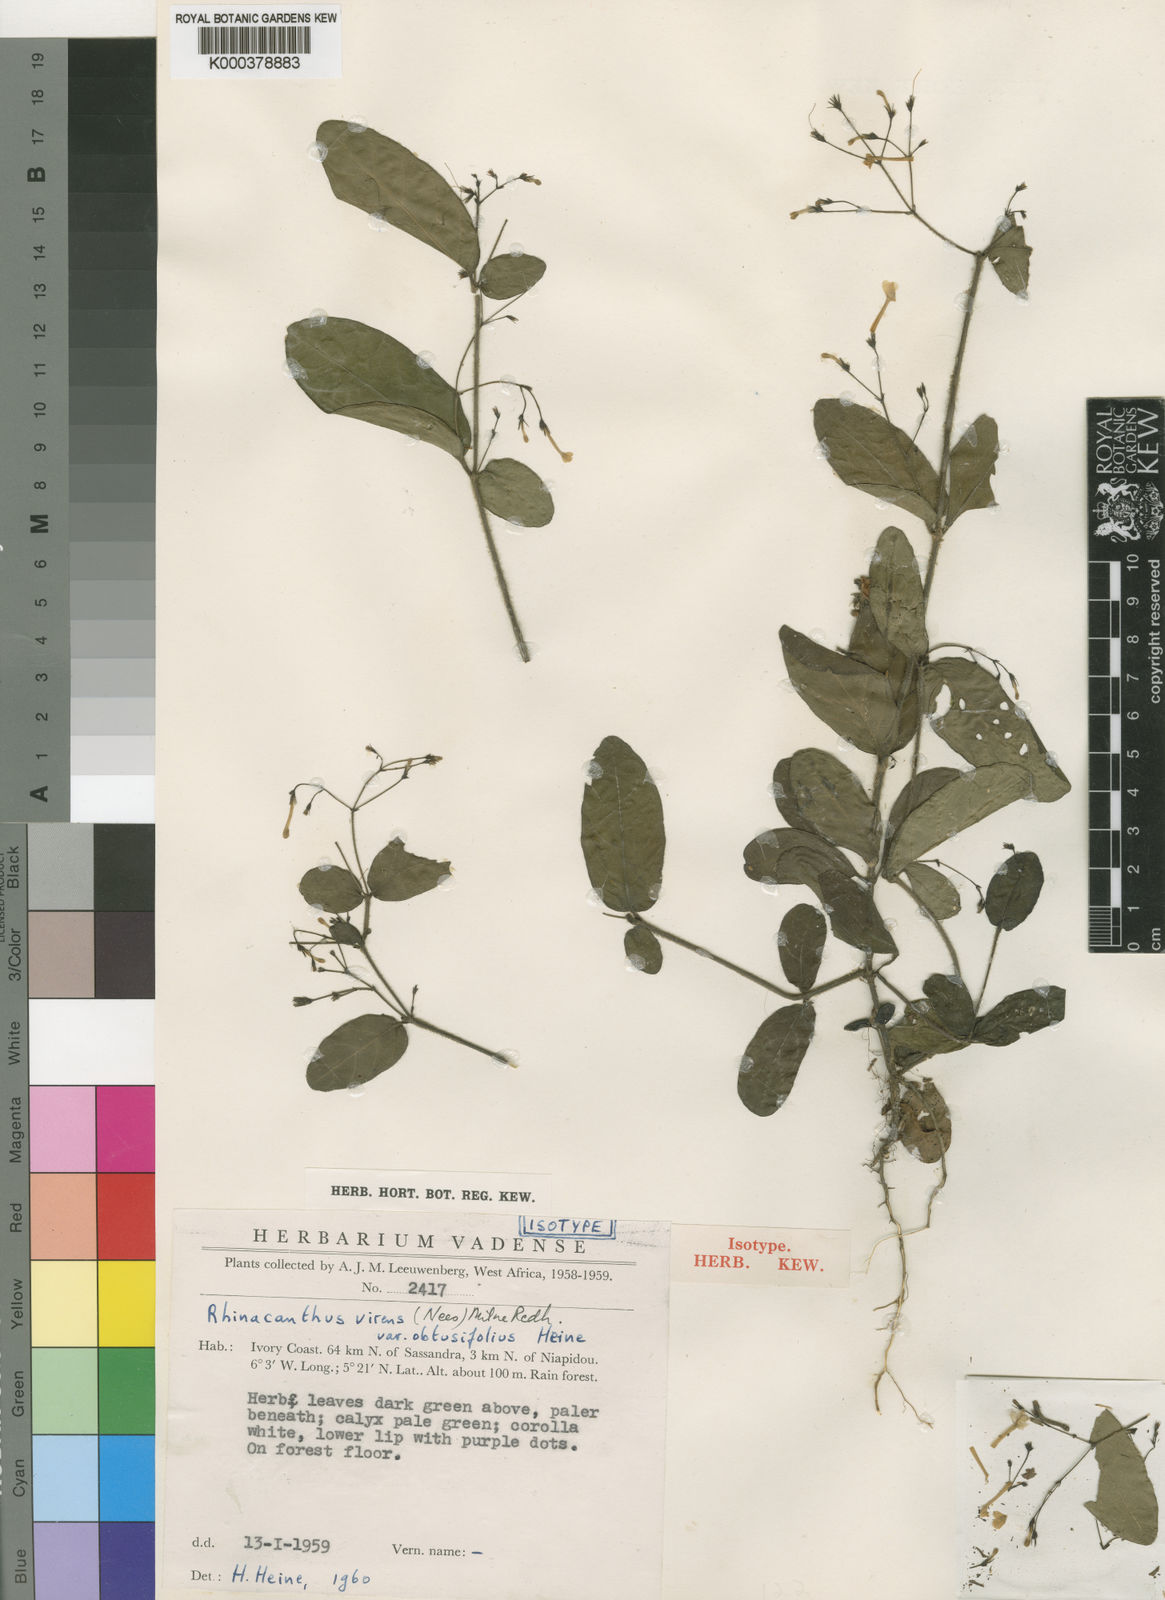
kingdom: Plantae
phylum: Tracheophyta
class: Magnoliopsida
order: Lamiales
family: Acanthaceae
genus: Rhinacanthus
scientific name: Rhinacanthus obtusifolius
